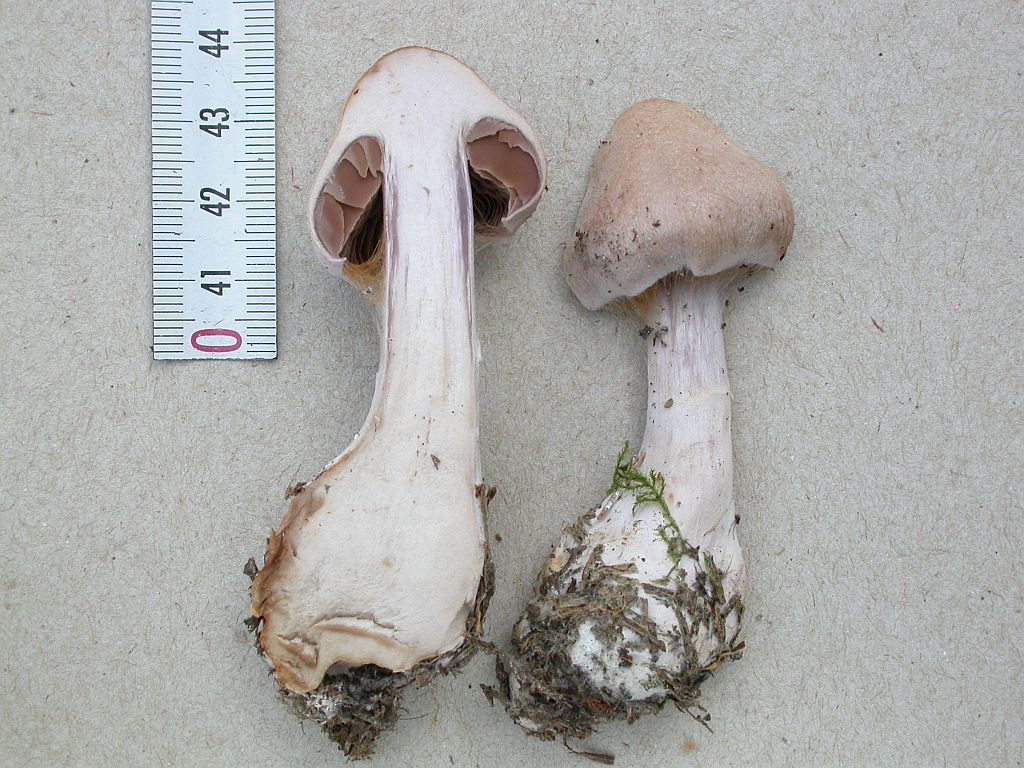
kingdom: Fungi
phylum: Basidiomycota
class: Agaricomycetes
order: Agaricales
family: Cortinariaceae
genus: Cortinarius
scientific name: Cortinarius malachius
